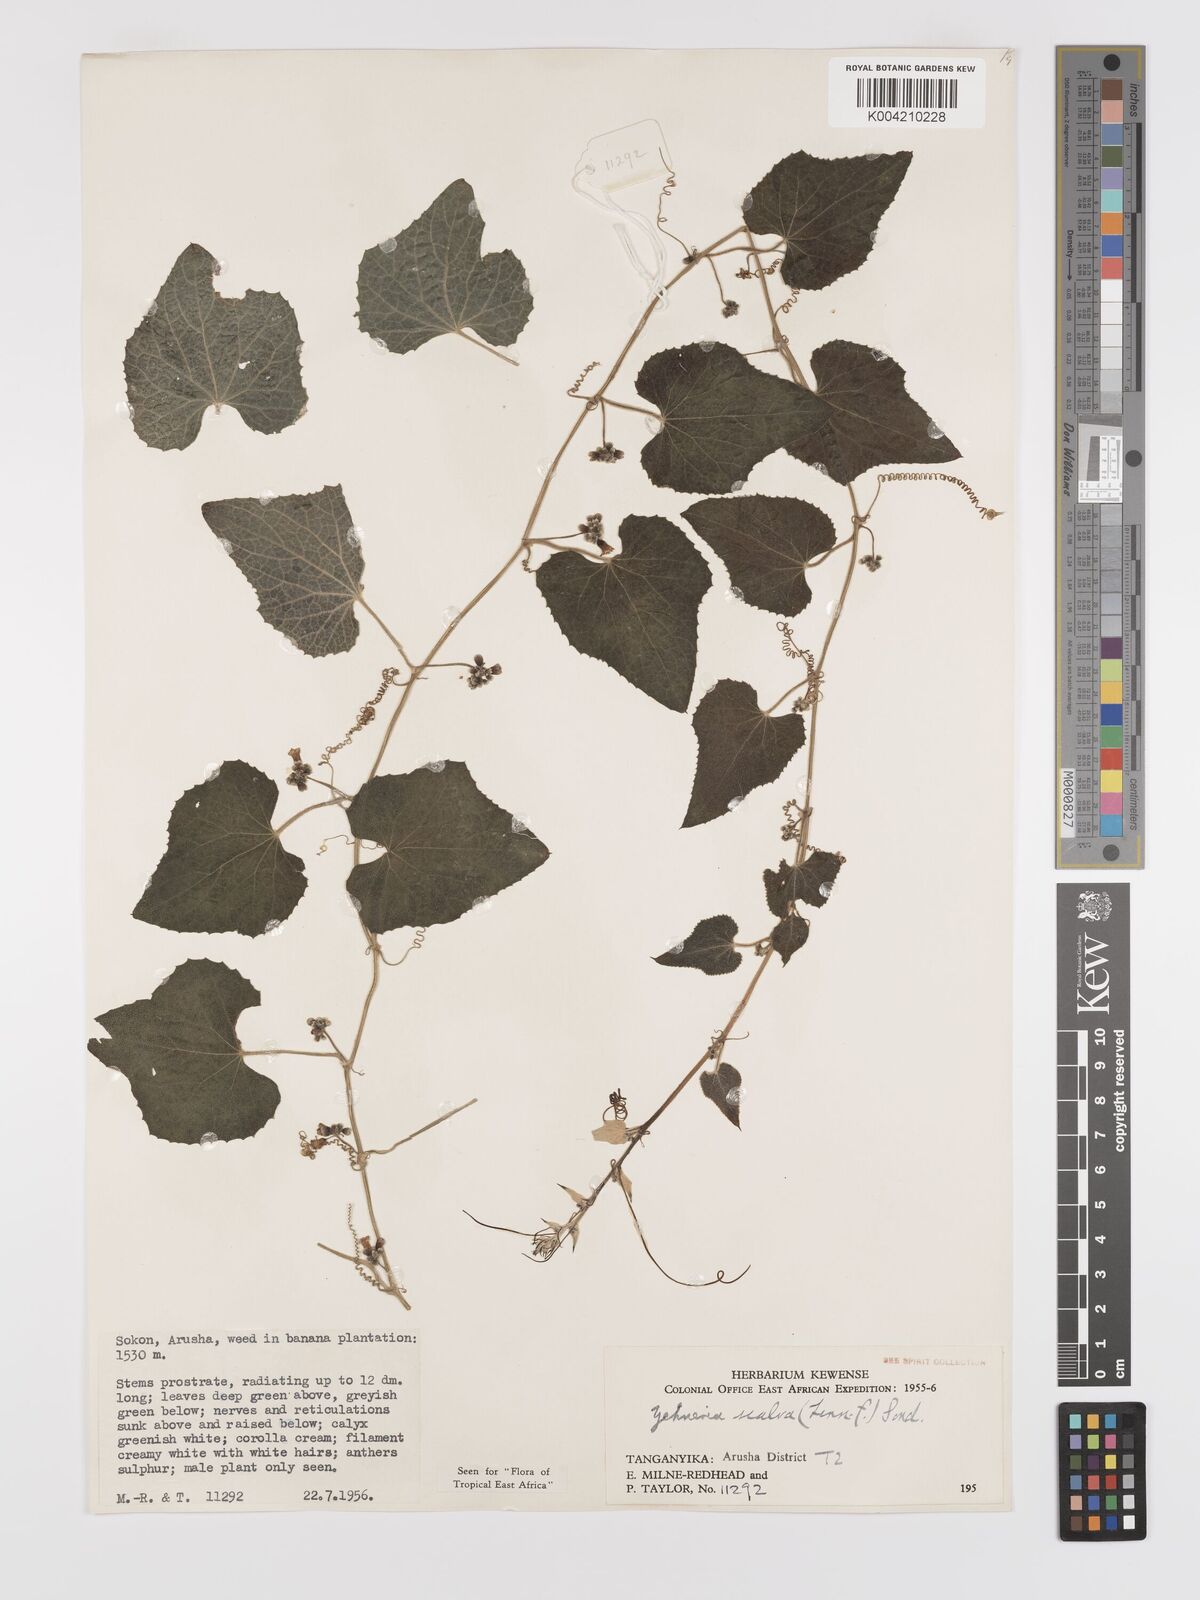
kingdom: Plantae
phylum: Tracheophyta
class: Magnoliopsida
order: Cucurbitales
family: Cucurbitaceae
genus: Zehneria
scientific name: Zehneria scabra
